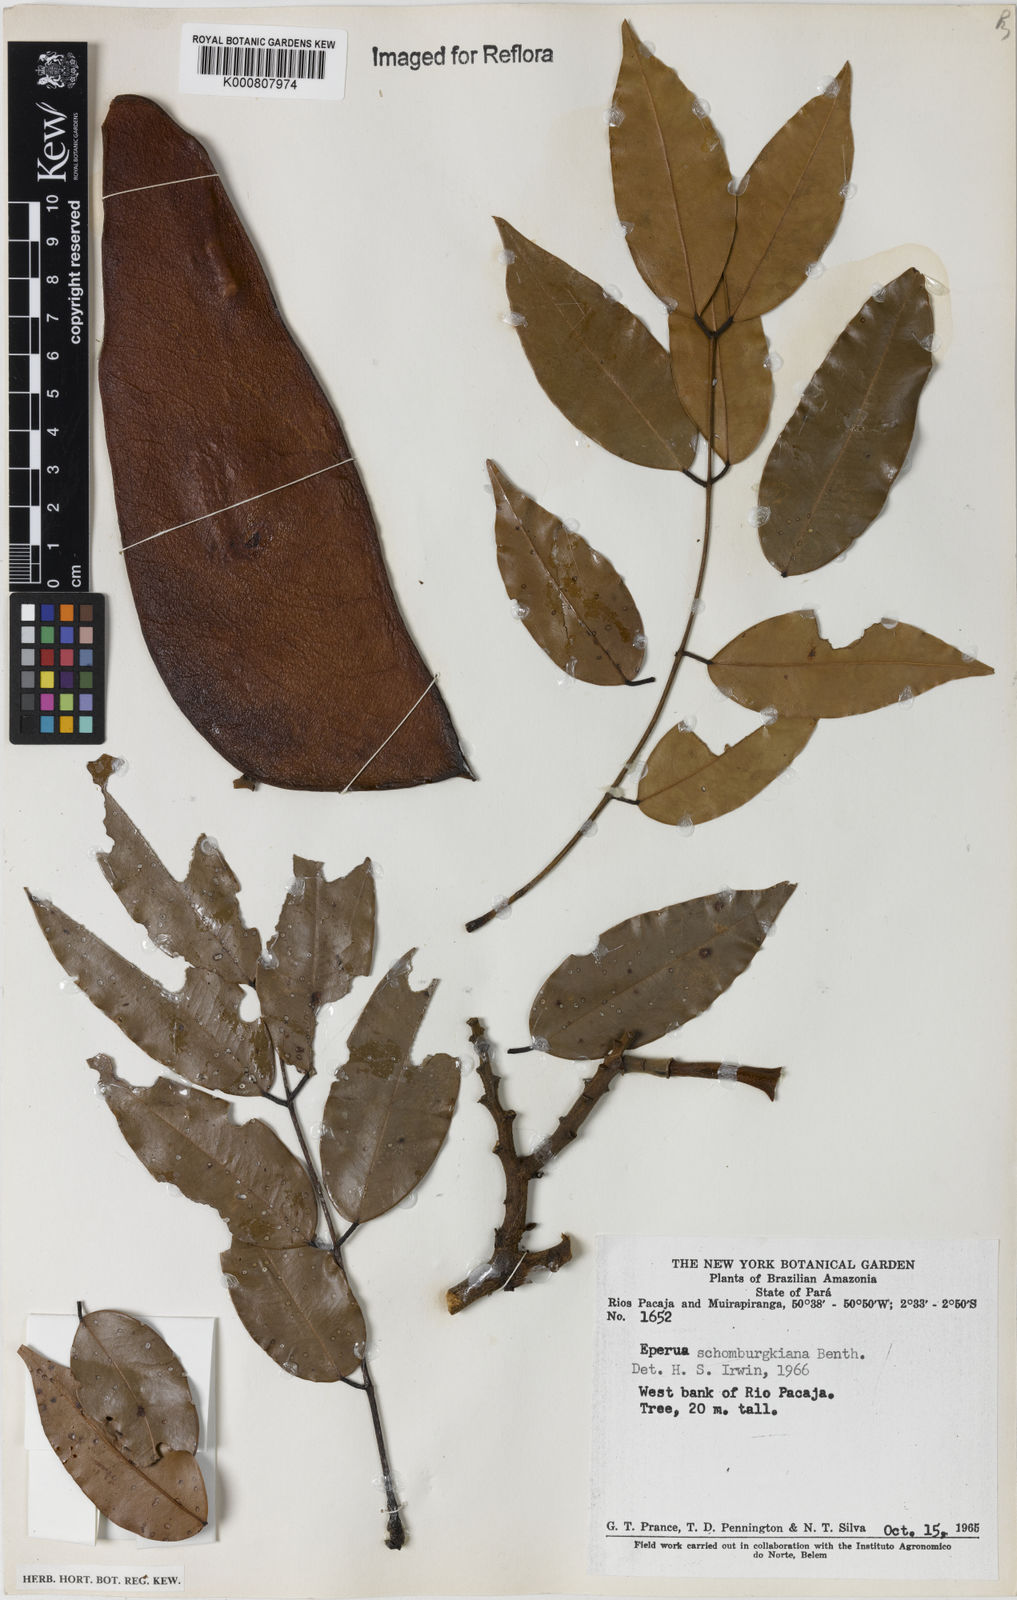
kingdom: Plantae
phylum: Tracheophyta
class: Magnoliopsida
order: Fabales
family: Fabaceae
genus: Eperua
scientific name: Eperua schomburgkiana
